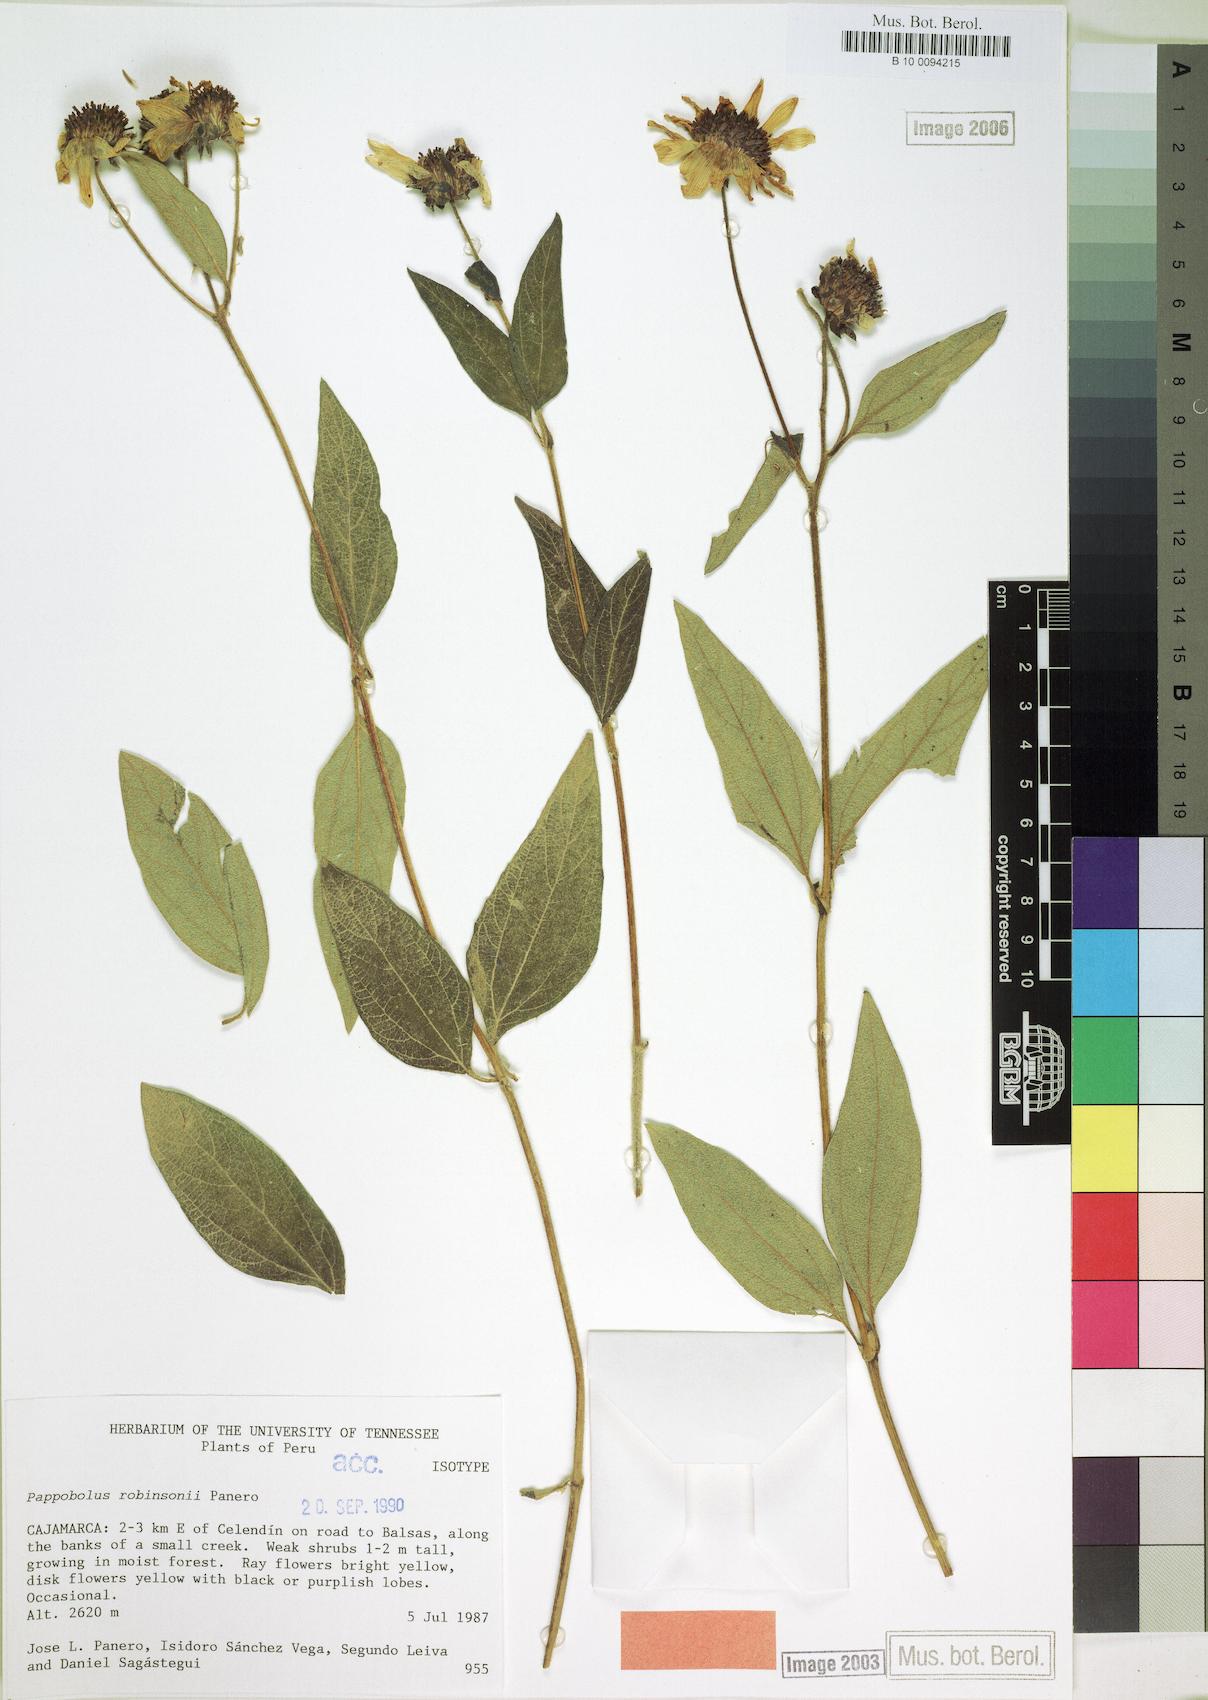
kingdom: Plantae
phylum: Tracheophyta
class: Magnoliopsida
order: Asterales
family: Asteraceae
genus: Pappobolus
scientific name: Pappobolus robinsonii
